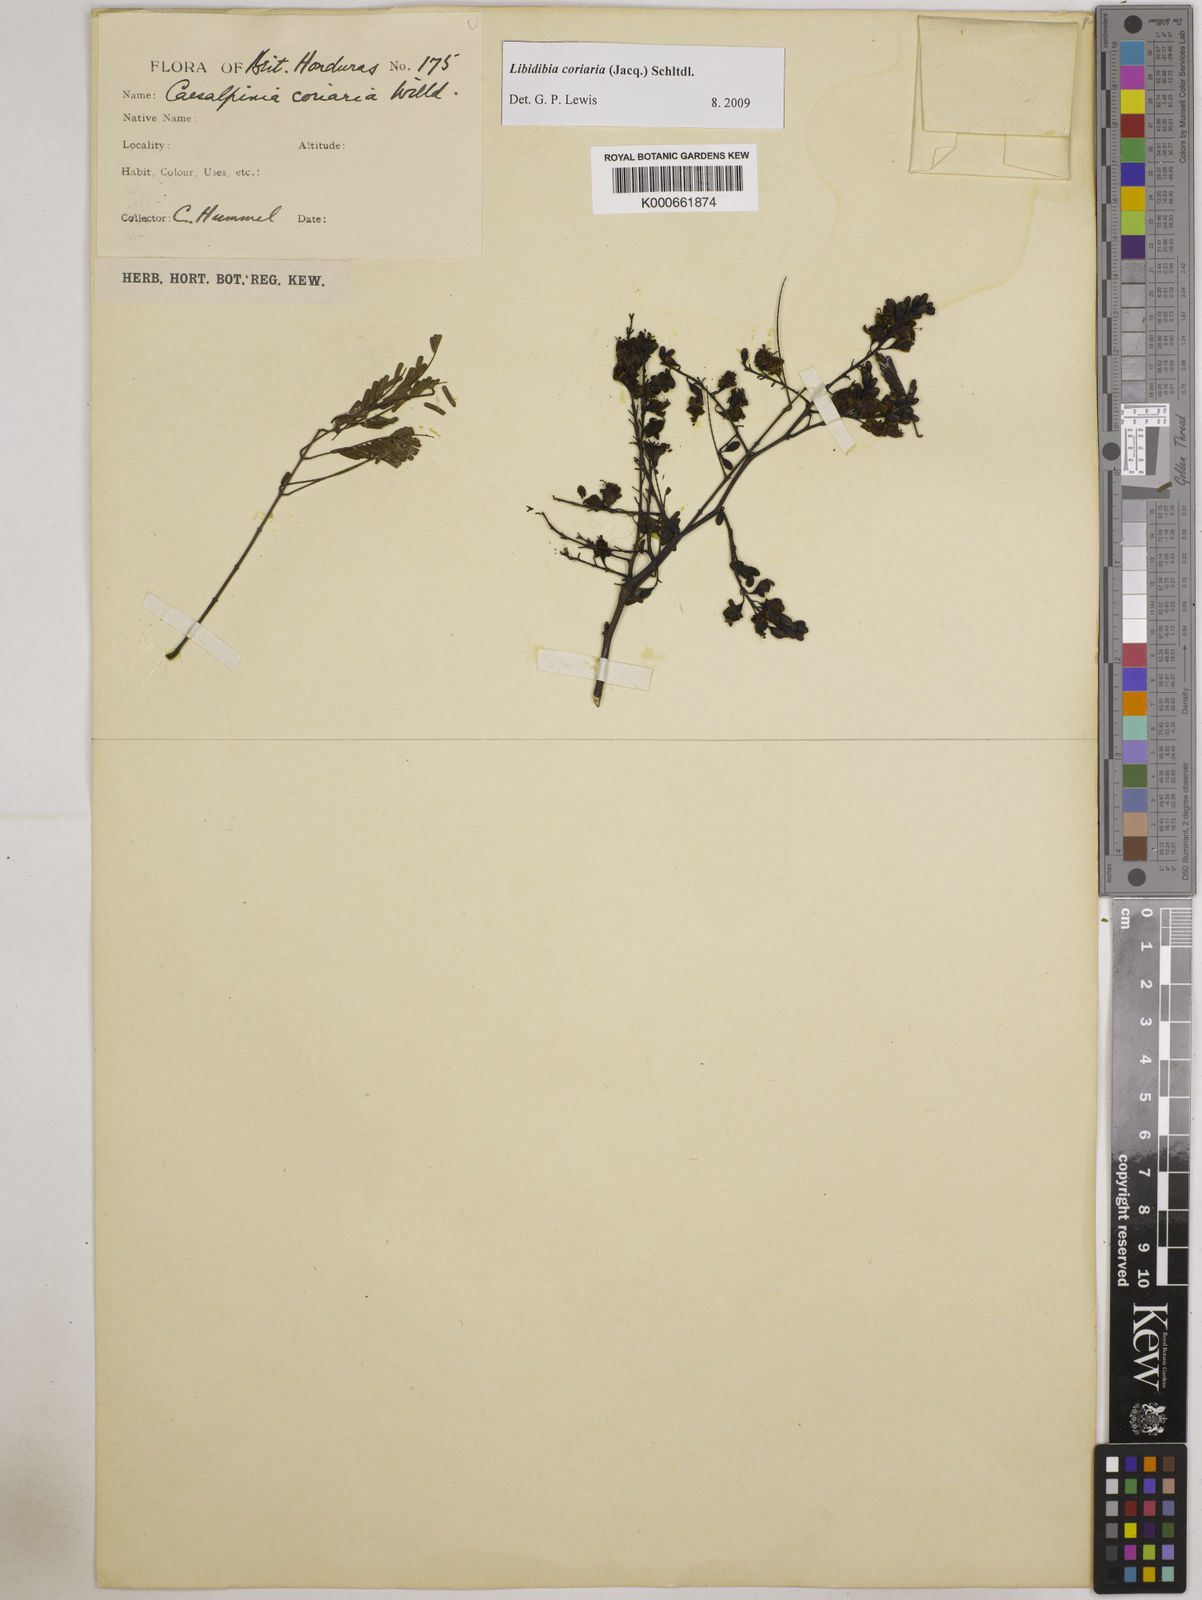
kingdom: Plantae
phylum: Tracheophyta
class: Magnoliopsida
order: Fabales
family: Fabaceae
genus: Libidibia
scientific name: Libidibia coriaria
